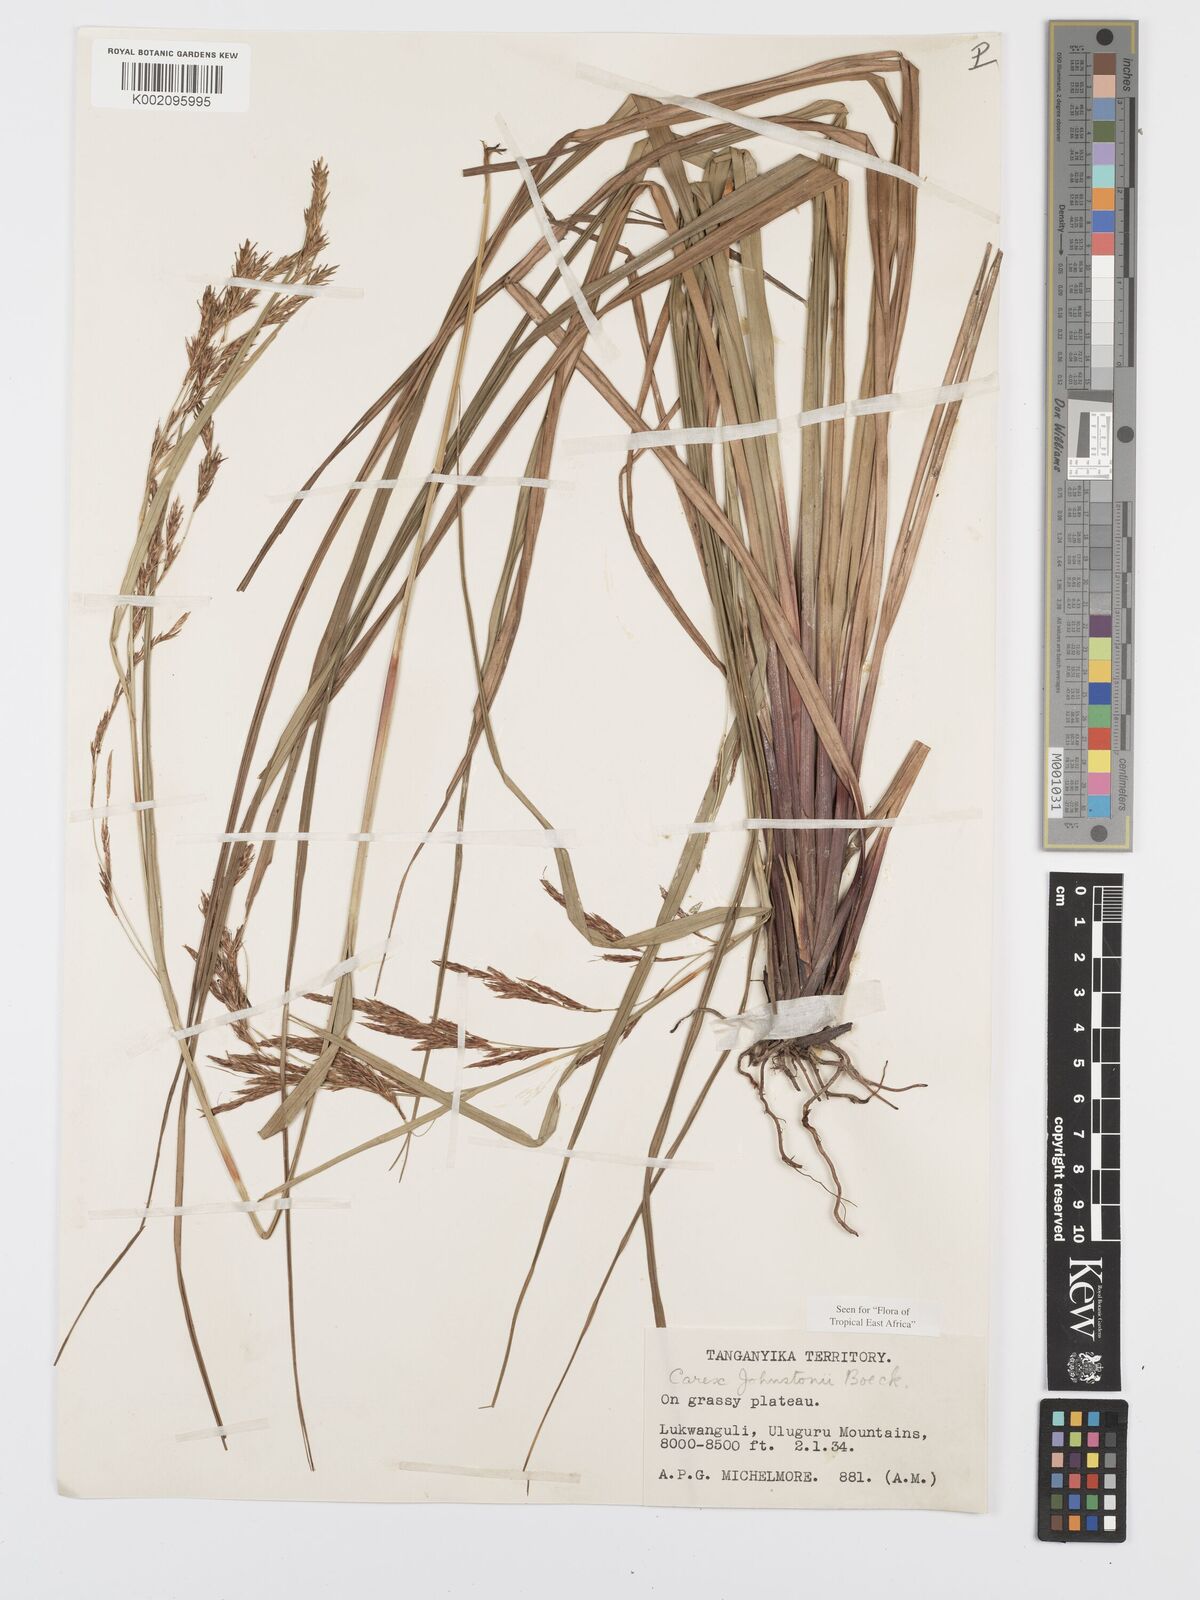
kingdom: Plantae
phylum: Tracheophyta
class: Liliopsida
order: Poales
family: Cyperaceae
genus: Carex
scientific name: Carex johnstonii
